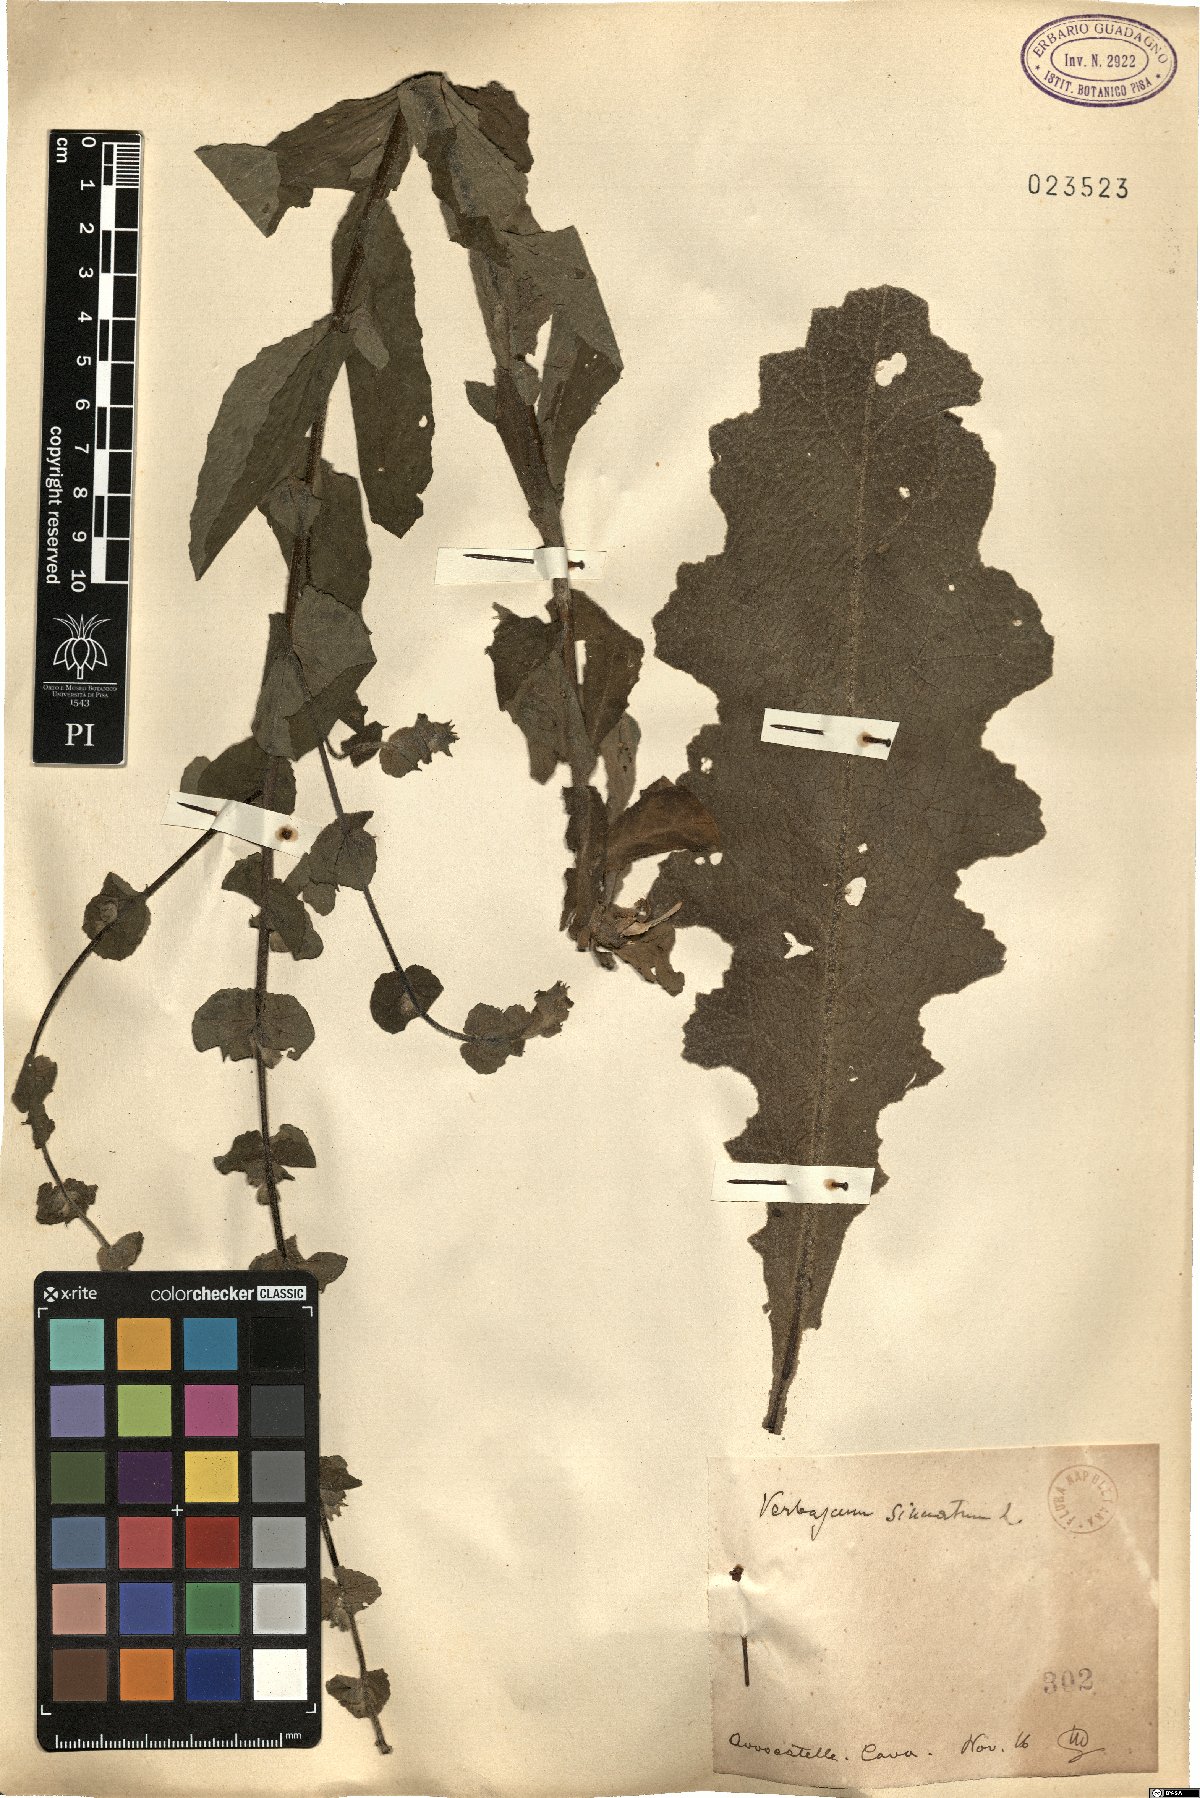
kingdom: Plantae
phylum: Tracheophyta
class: Magnoliopsida
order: Lamiales
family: Scrophulariaceae
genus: Verbascum
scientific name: Verbascum sinuatum
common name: Wavyleaf mullein
